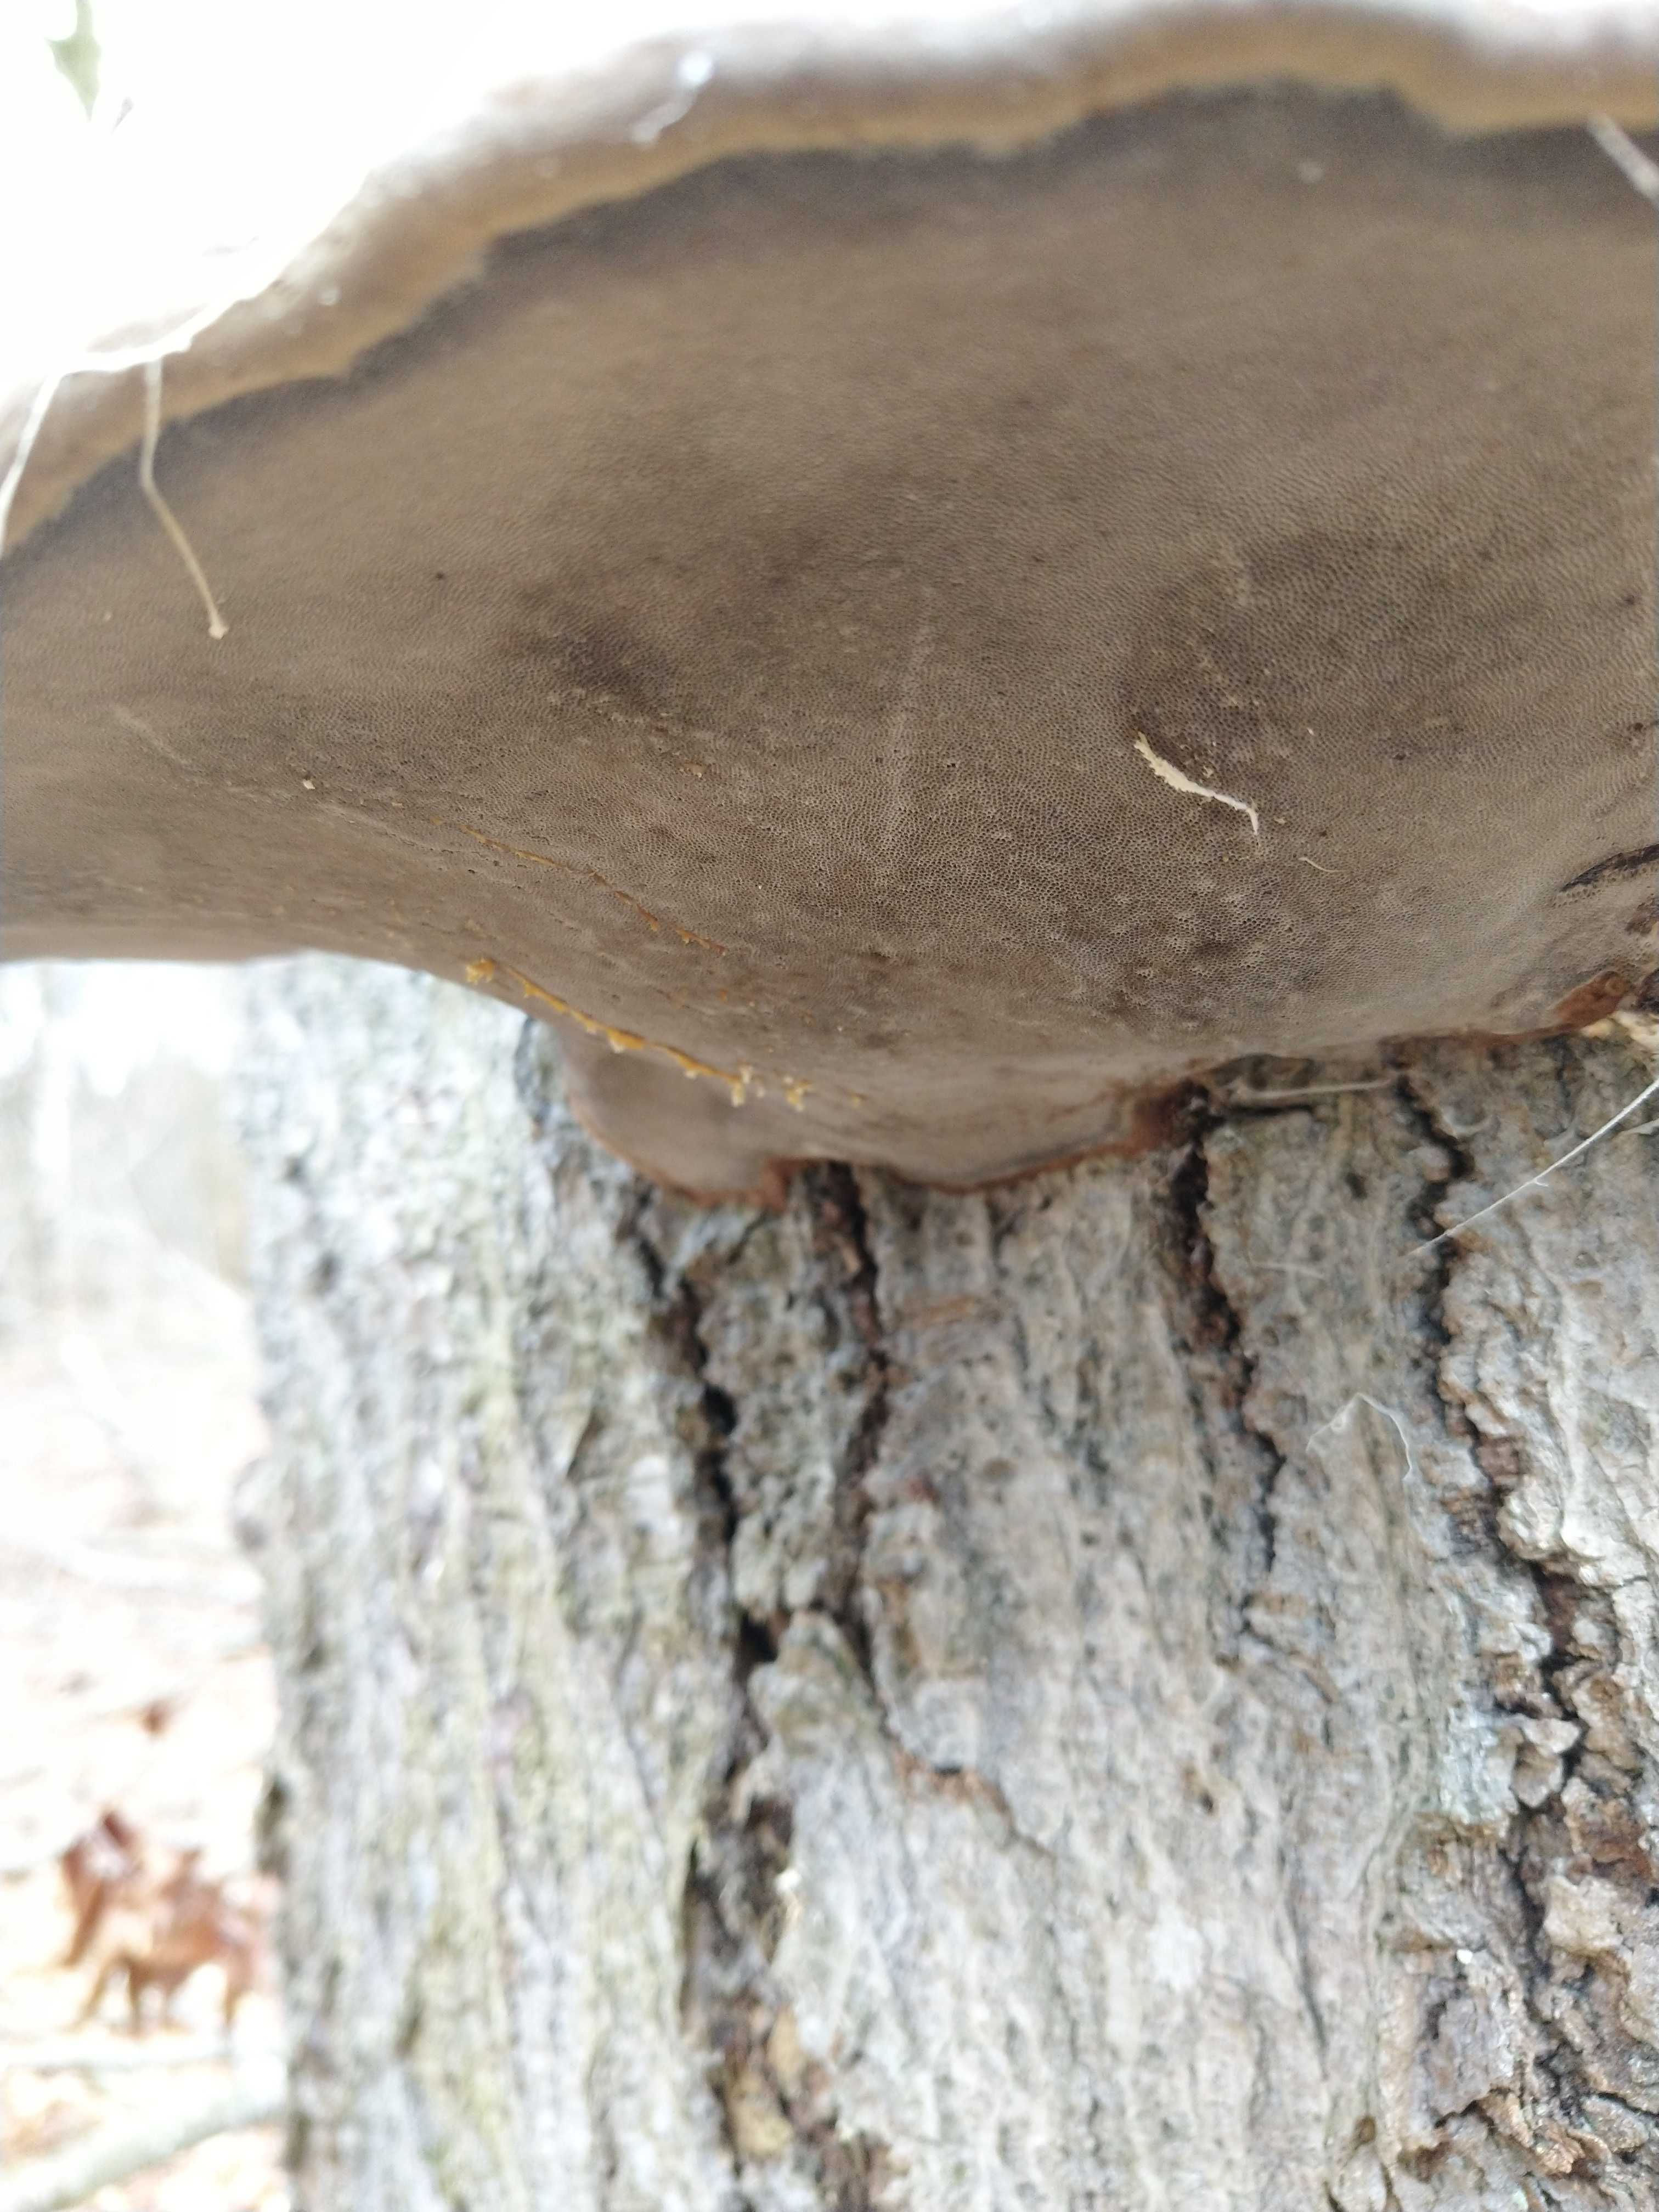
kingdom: Fungi
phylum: Basidiomycota
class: Agaricomycetes
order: Polyporales
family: Polyporaceae
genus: Fomes
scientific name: Fomes fomentarius
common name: tøndersvamp
